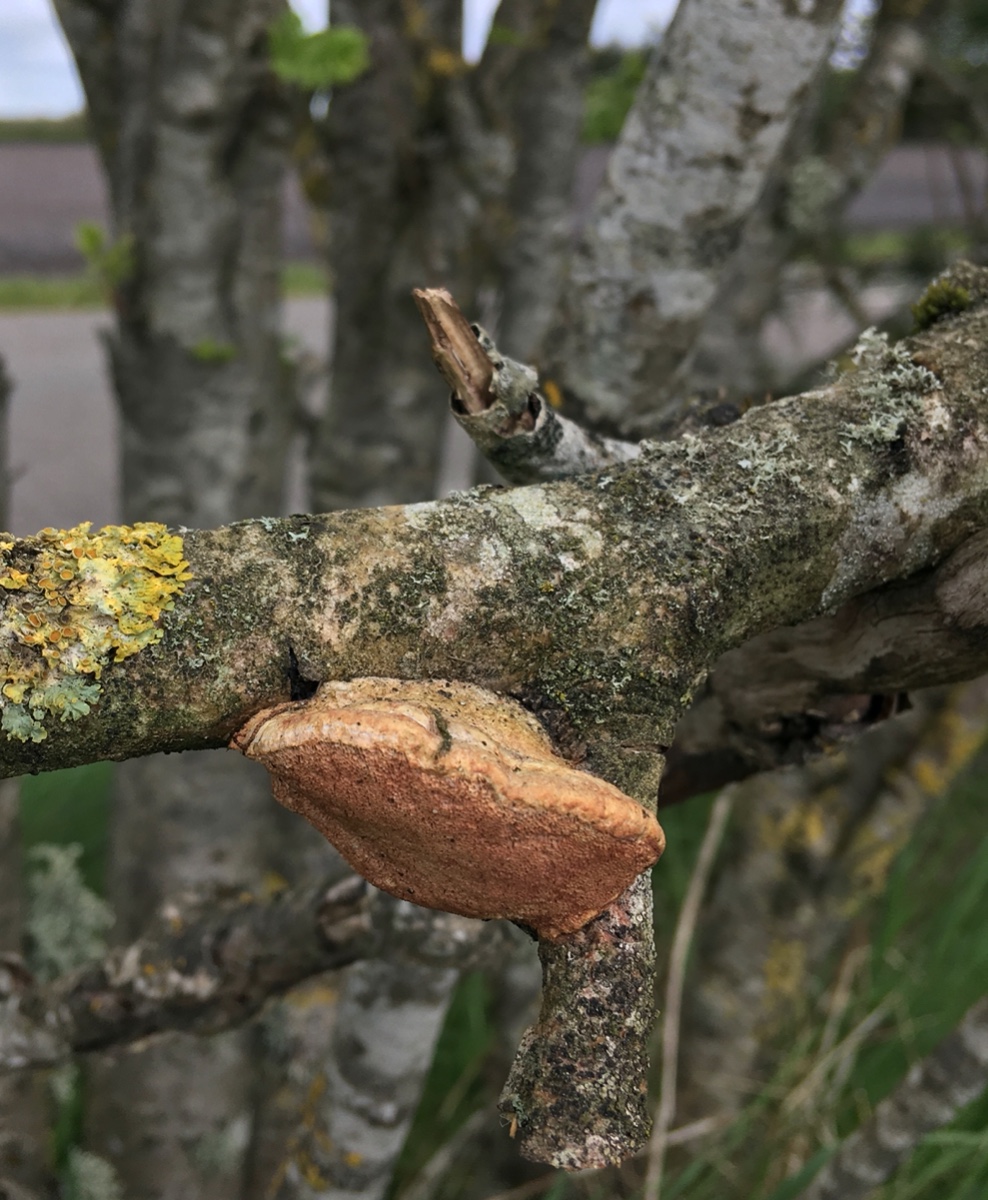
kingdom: Fungi
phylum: Basidiomycota
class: Agaricomycetes
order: Polyporales
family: Phanerochaetaceae
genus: Hapalopilus
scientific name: Hapalopilus rutilans
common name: rødlig okkerporesvamp
